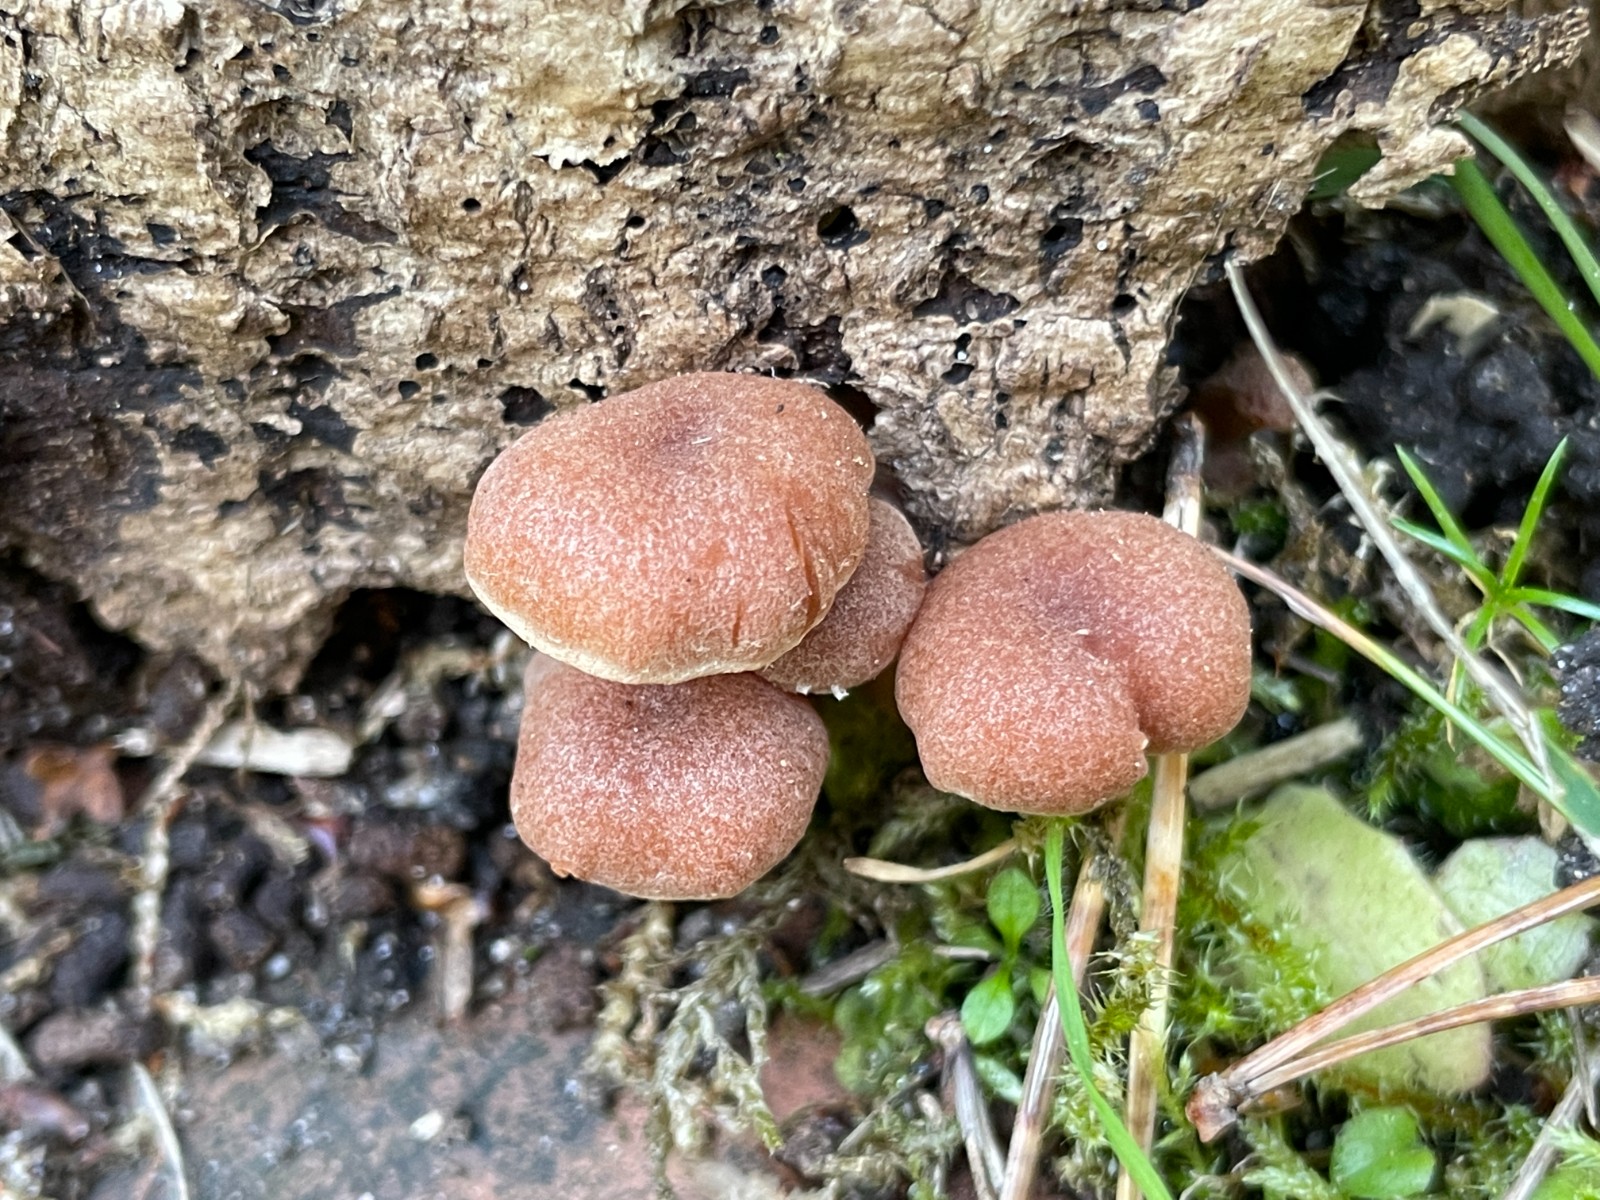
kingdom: Fungi
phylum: Basidiomycota
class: Agaricomycetes
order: Agaricales
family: Tubariaceae
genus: Tubaria
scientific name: Tubaria furfuracea
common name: kliddet fnughat
